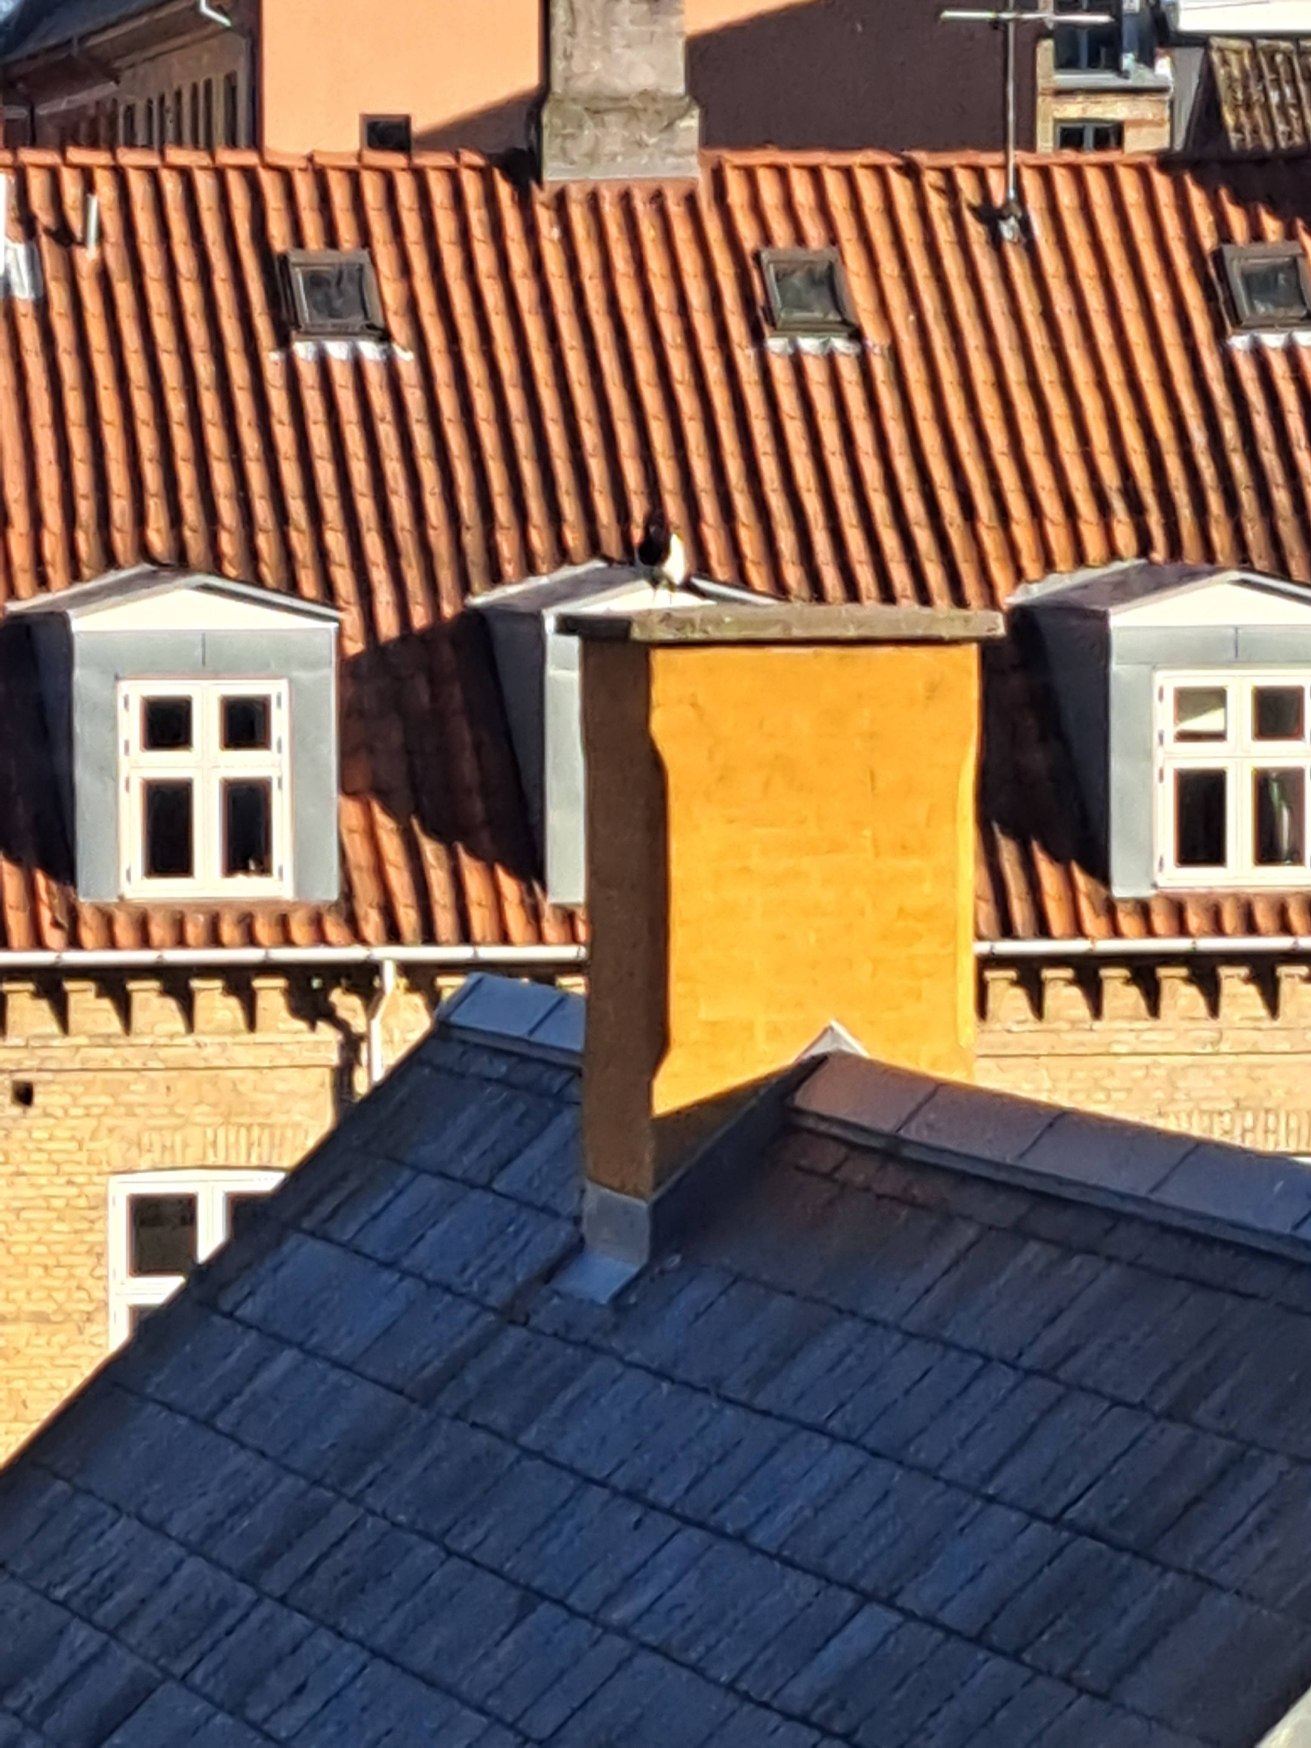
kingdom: Animalia
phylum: Chordata
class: Aves
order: Passeriformes
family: Corvidae
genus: Pica
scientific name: Pica pica
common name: Husskade
